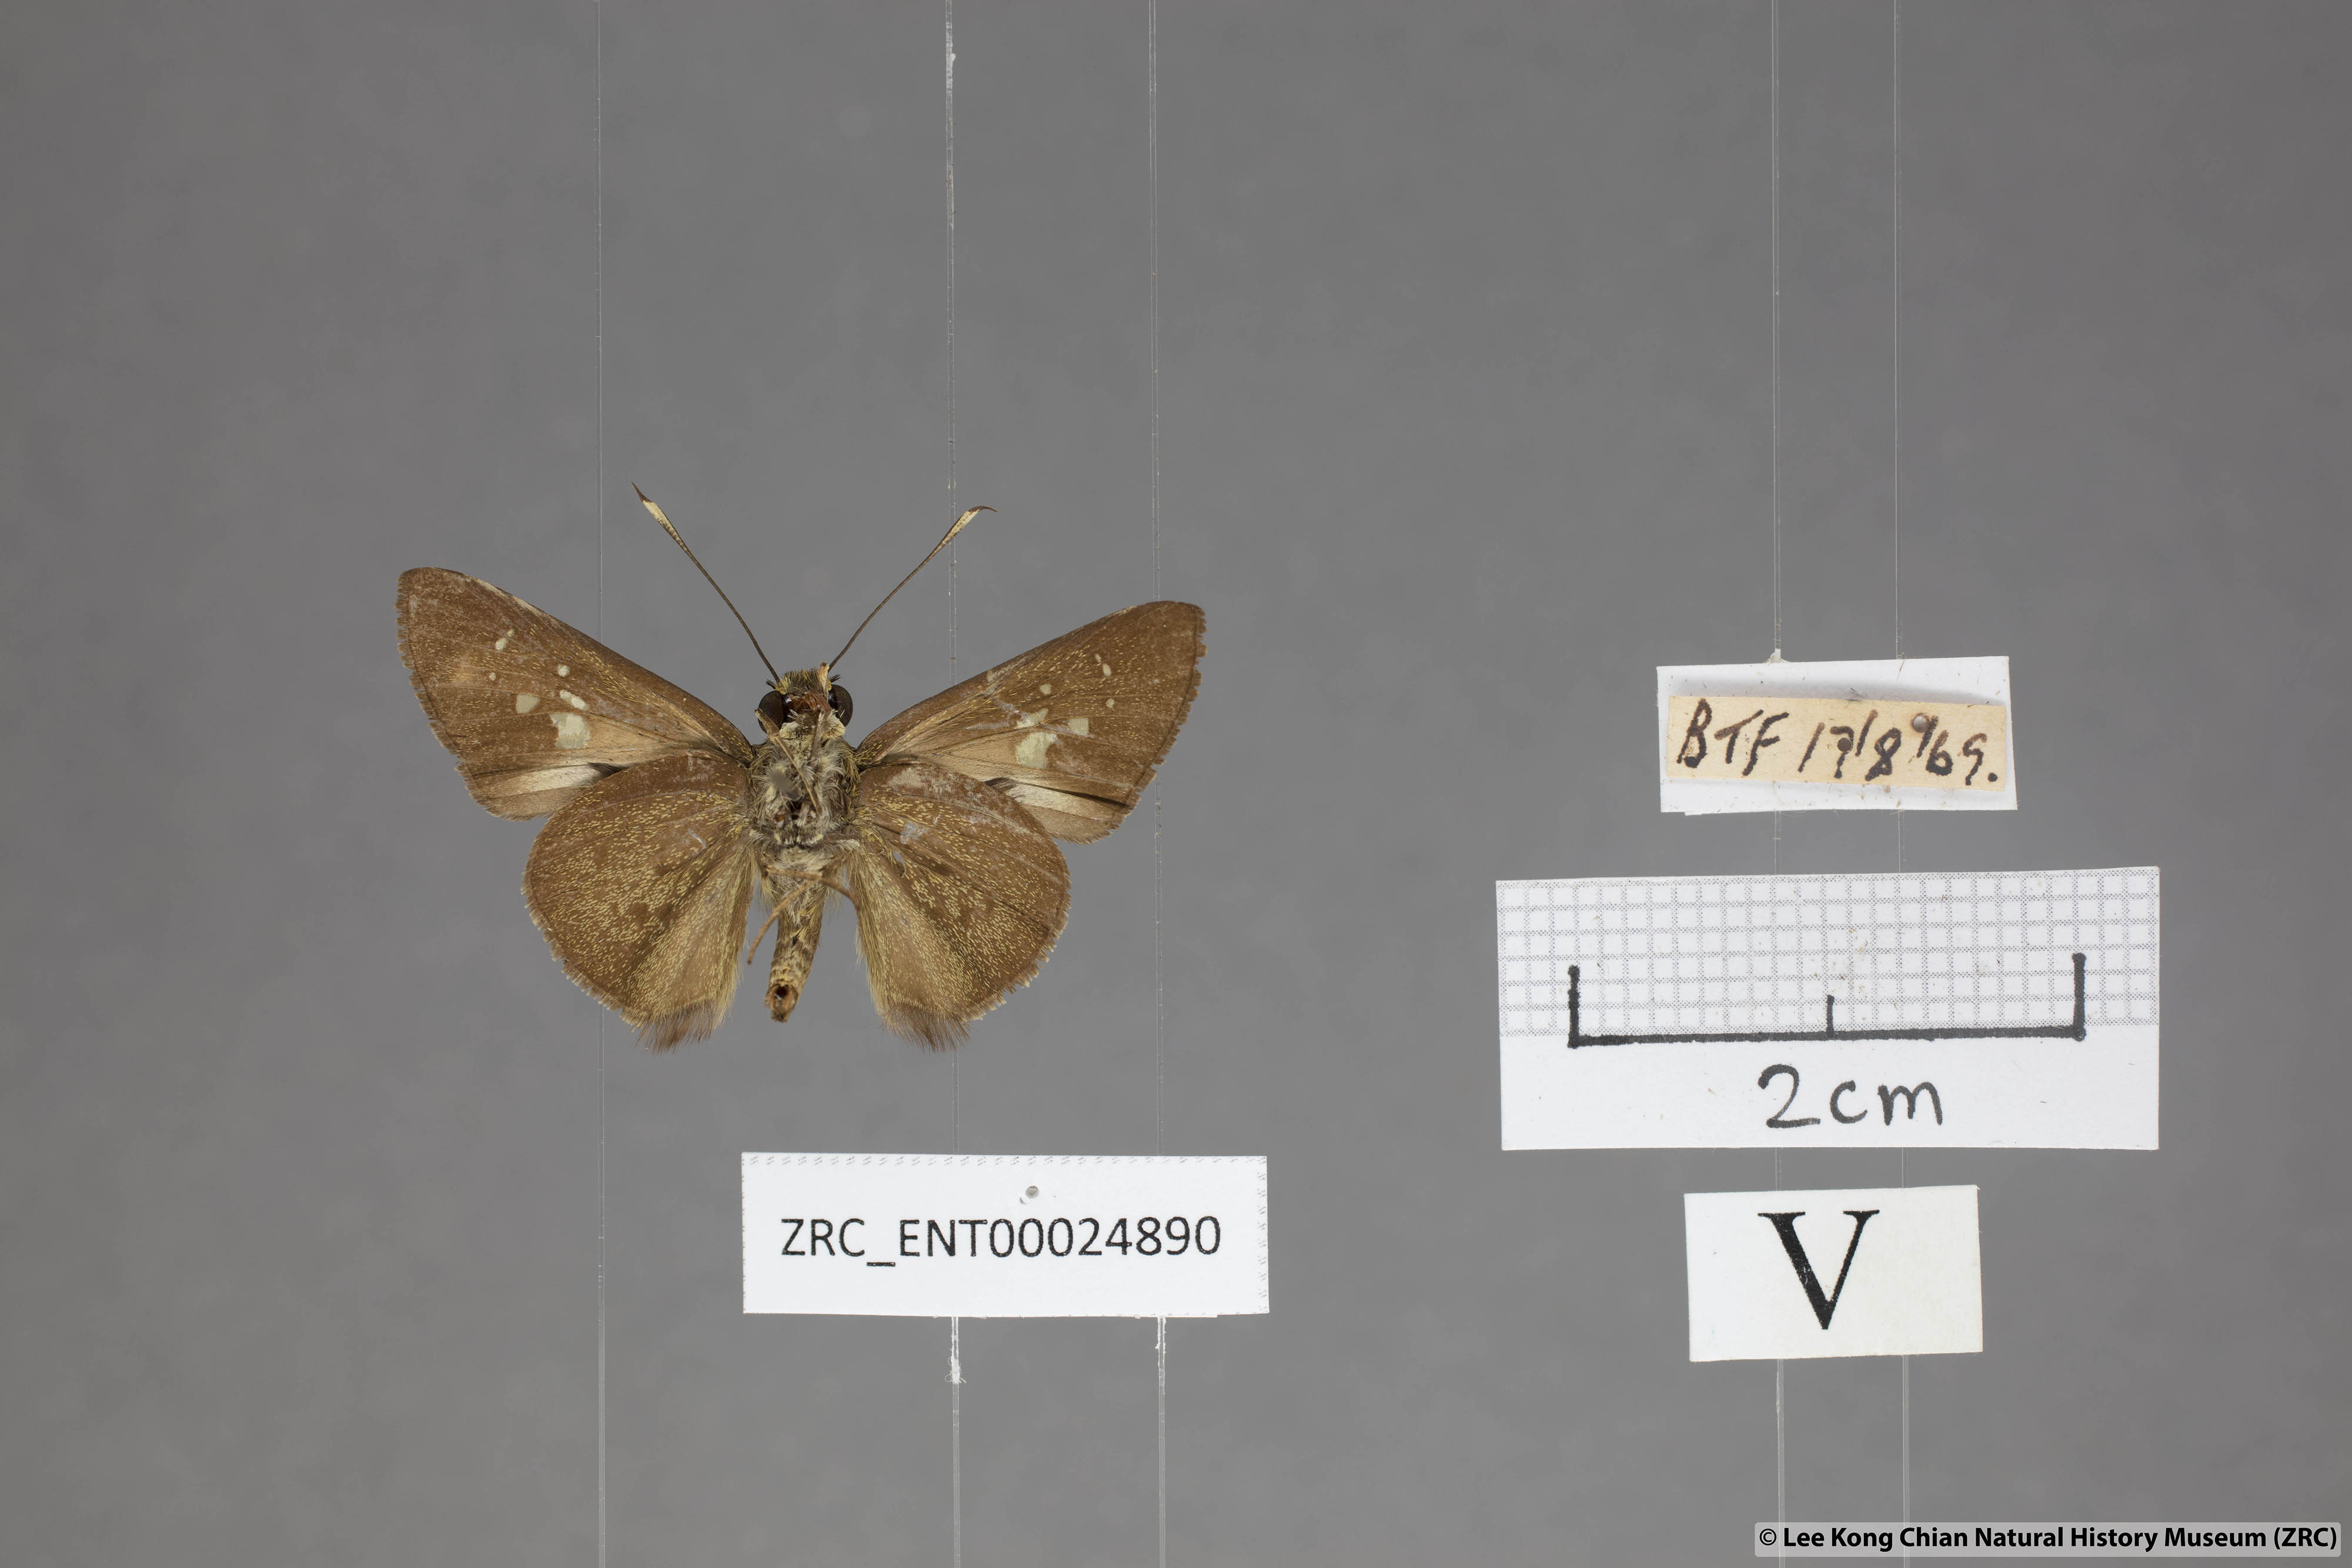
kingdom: Animalia
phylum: Arthropoda
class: Insecta
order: Lepidoptera
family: Hesperiidae
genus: Isma
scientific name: Isma
